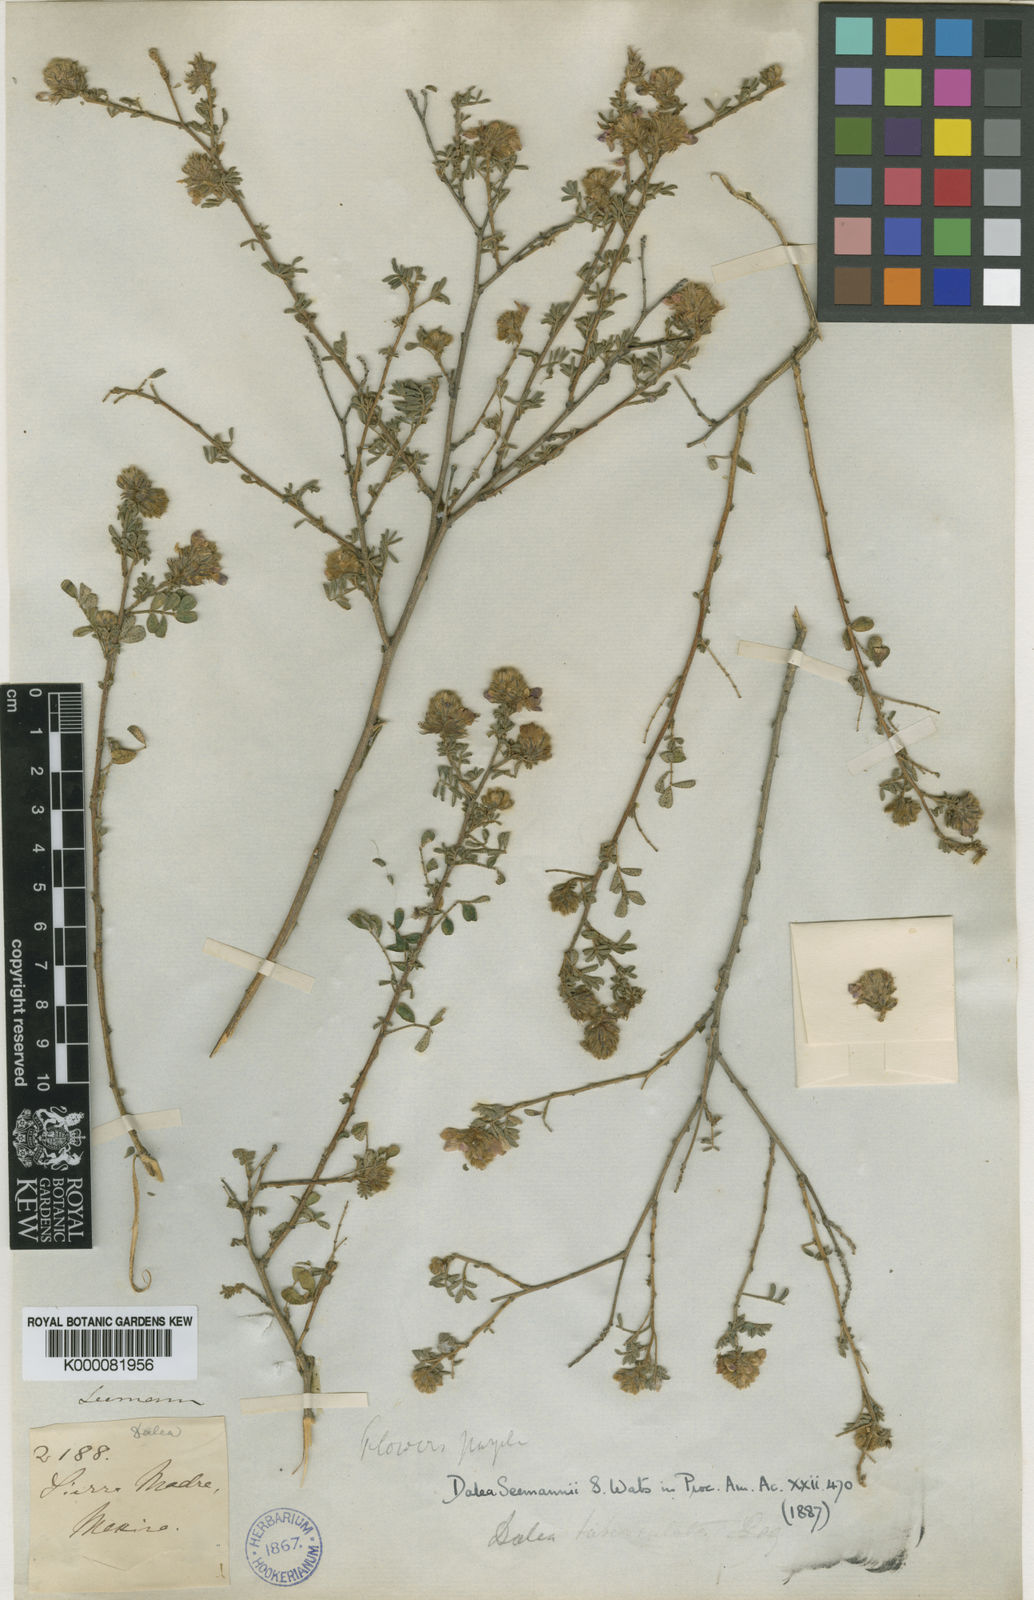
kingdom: Plantae
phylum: Tracheophyta
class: Magnoliopsida
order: Fabales
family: Fabaceae
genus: Dalea
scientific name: Dalea bicolor
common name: Silver prairie-clover
